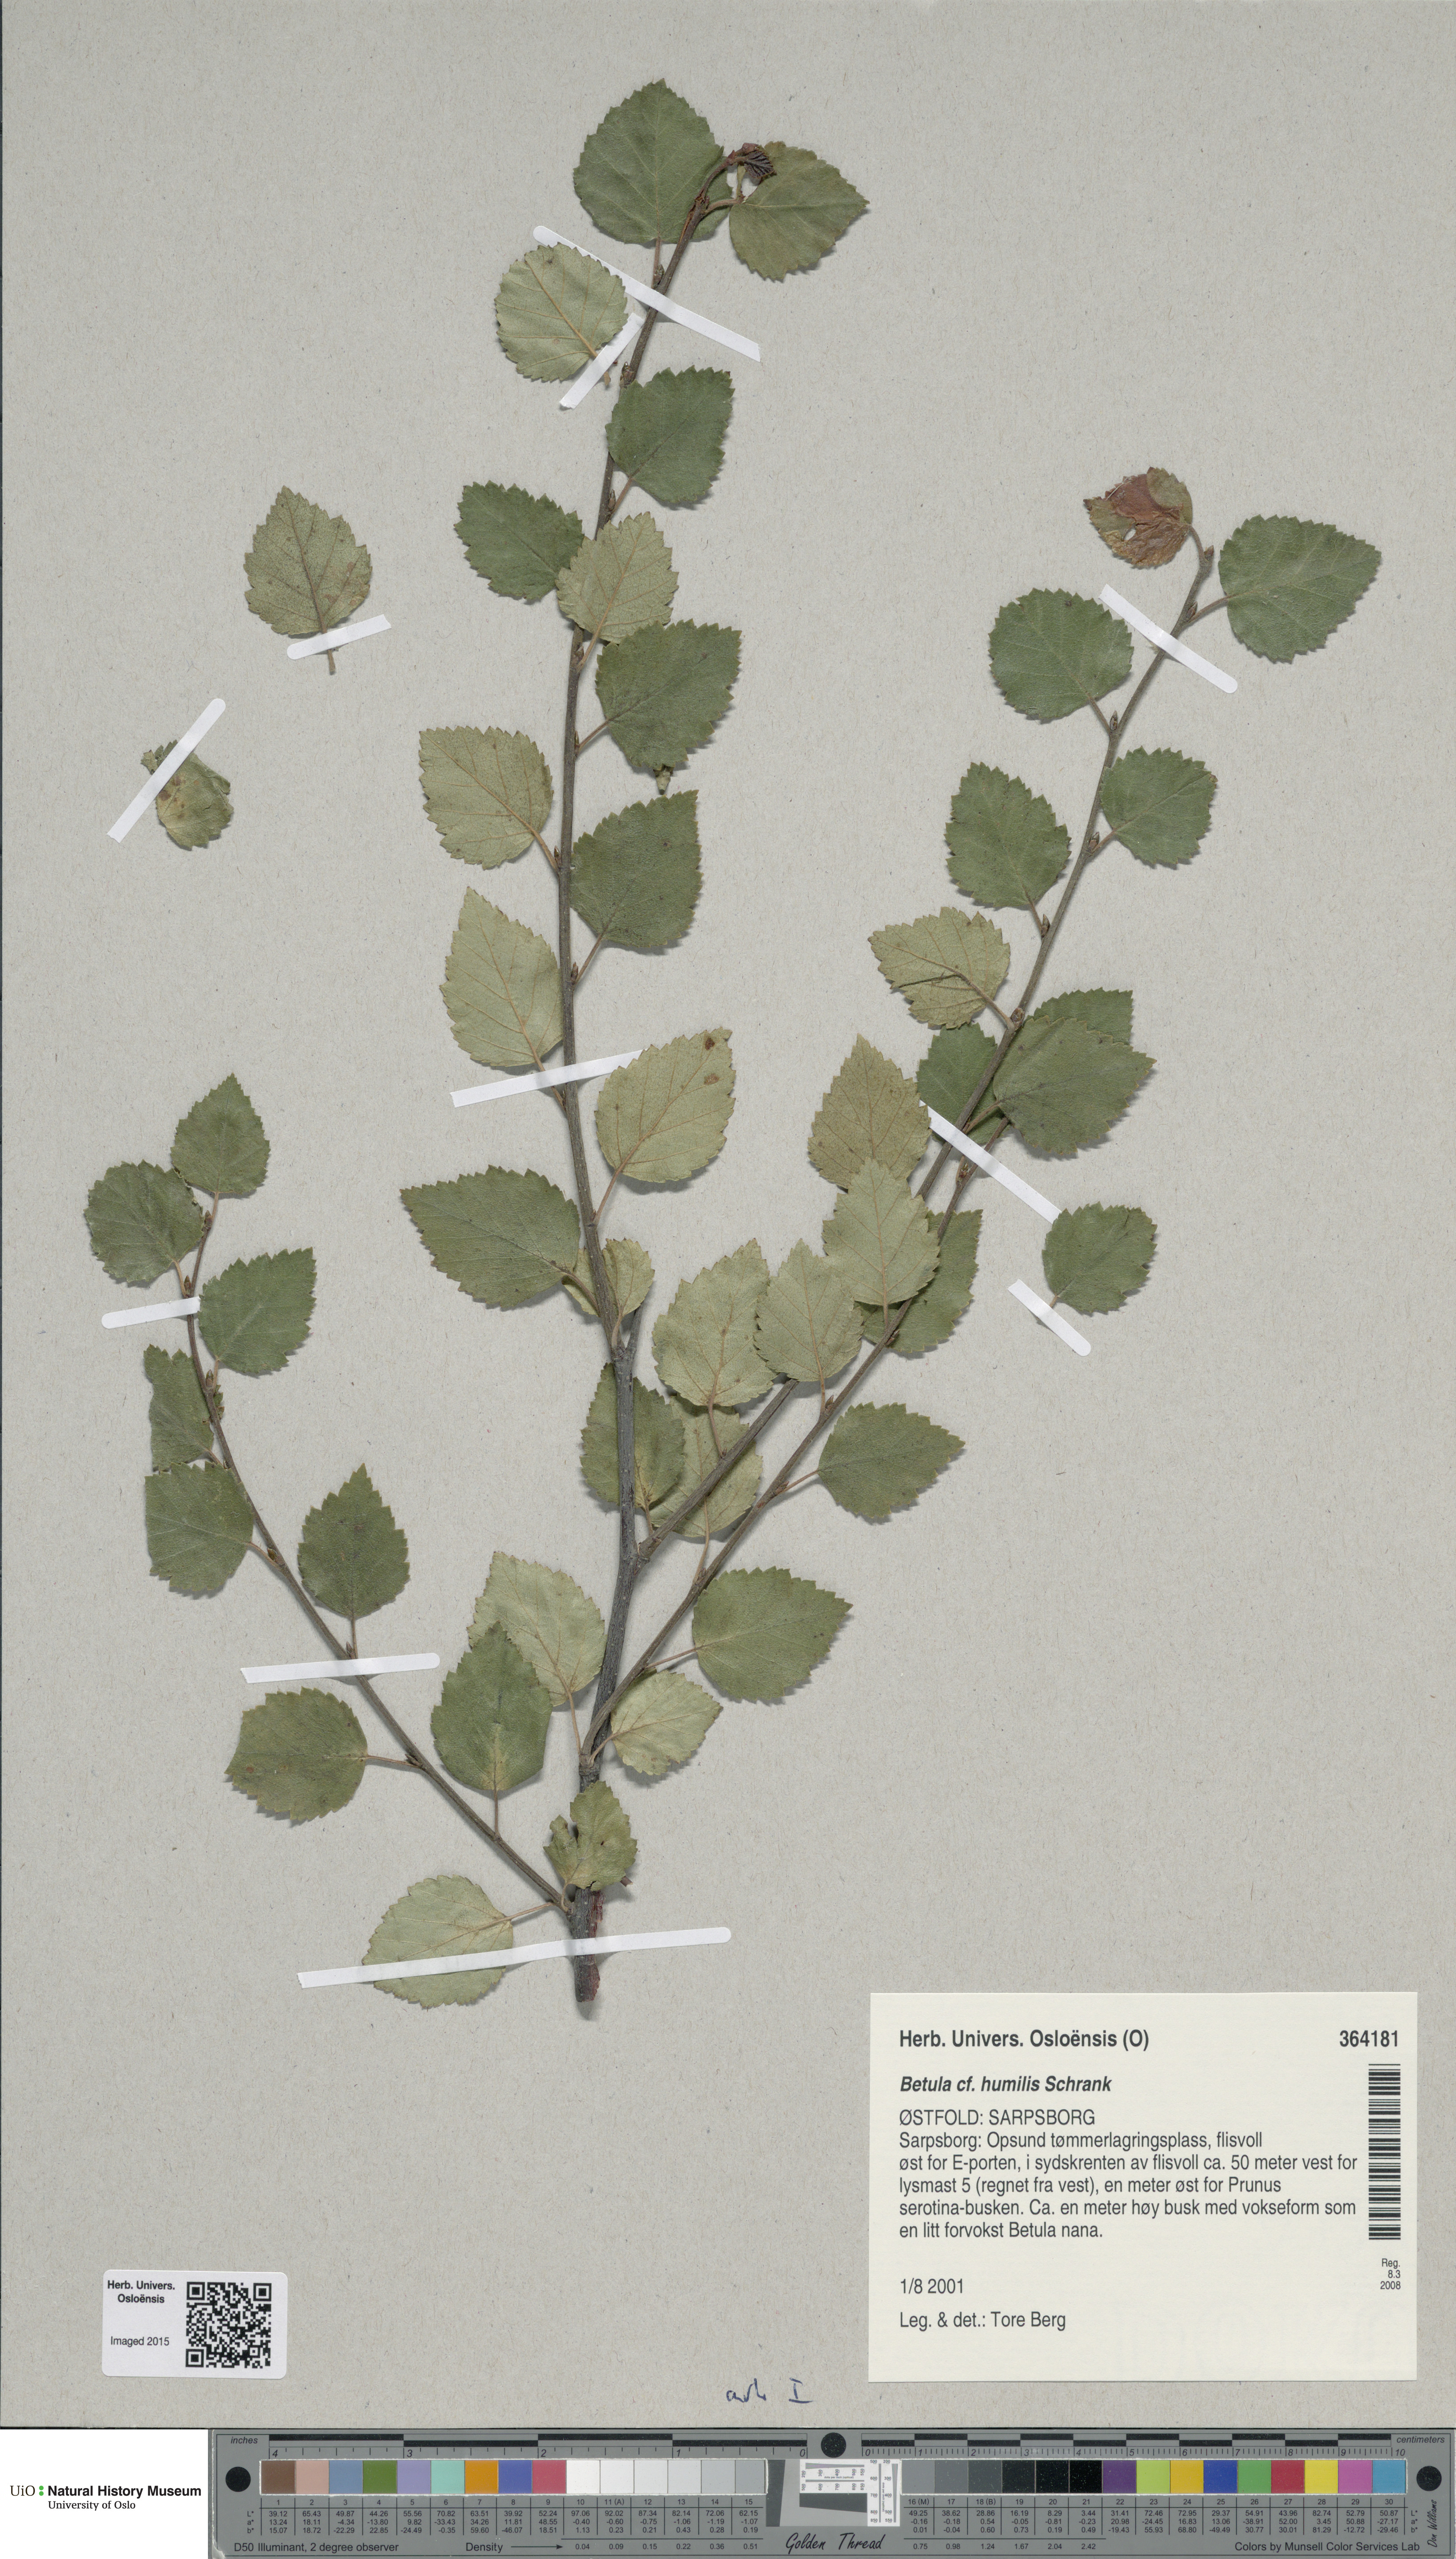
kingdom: Plantae
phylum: Tracheophyta
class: Magnoliopsida
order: Fagales
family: Betulaceae
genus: Betula
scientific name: Betula humilis
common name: Shrubby birch
